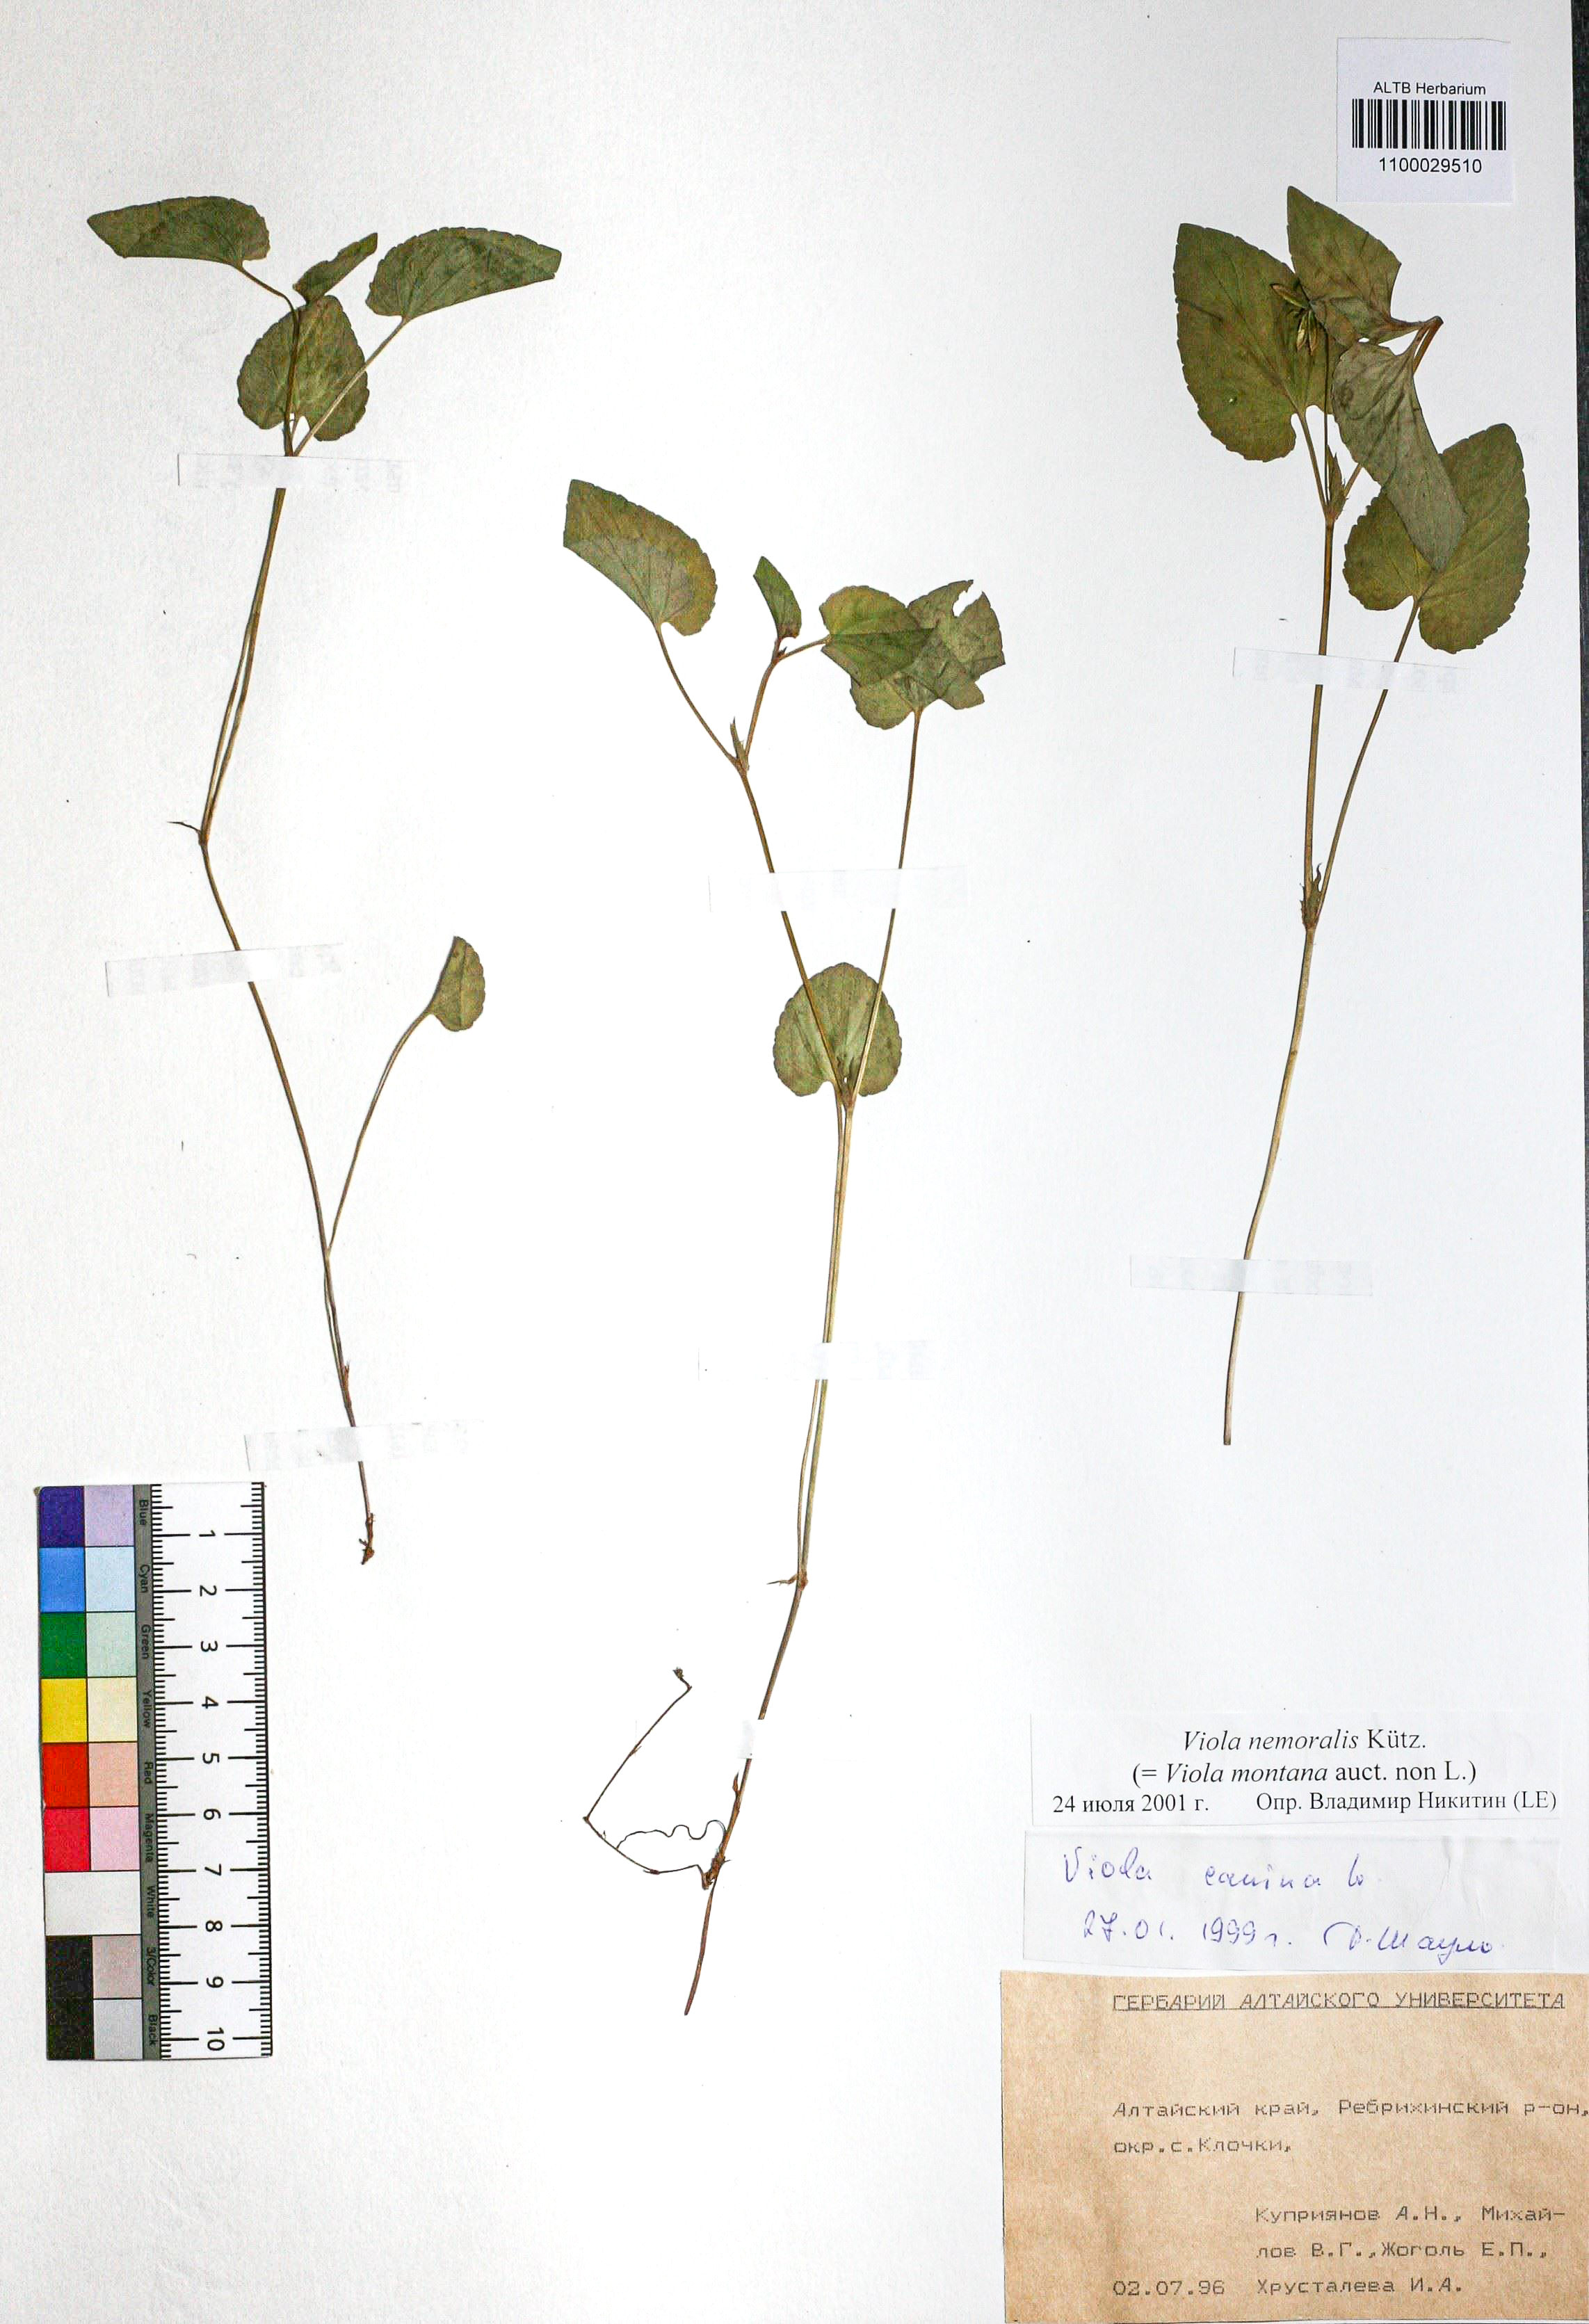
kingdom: Plantae
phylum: Tracheophyta
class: Magnoliopsida
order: Malpighiales
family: Violaceae
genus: Viola
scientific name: Viola ruppii
